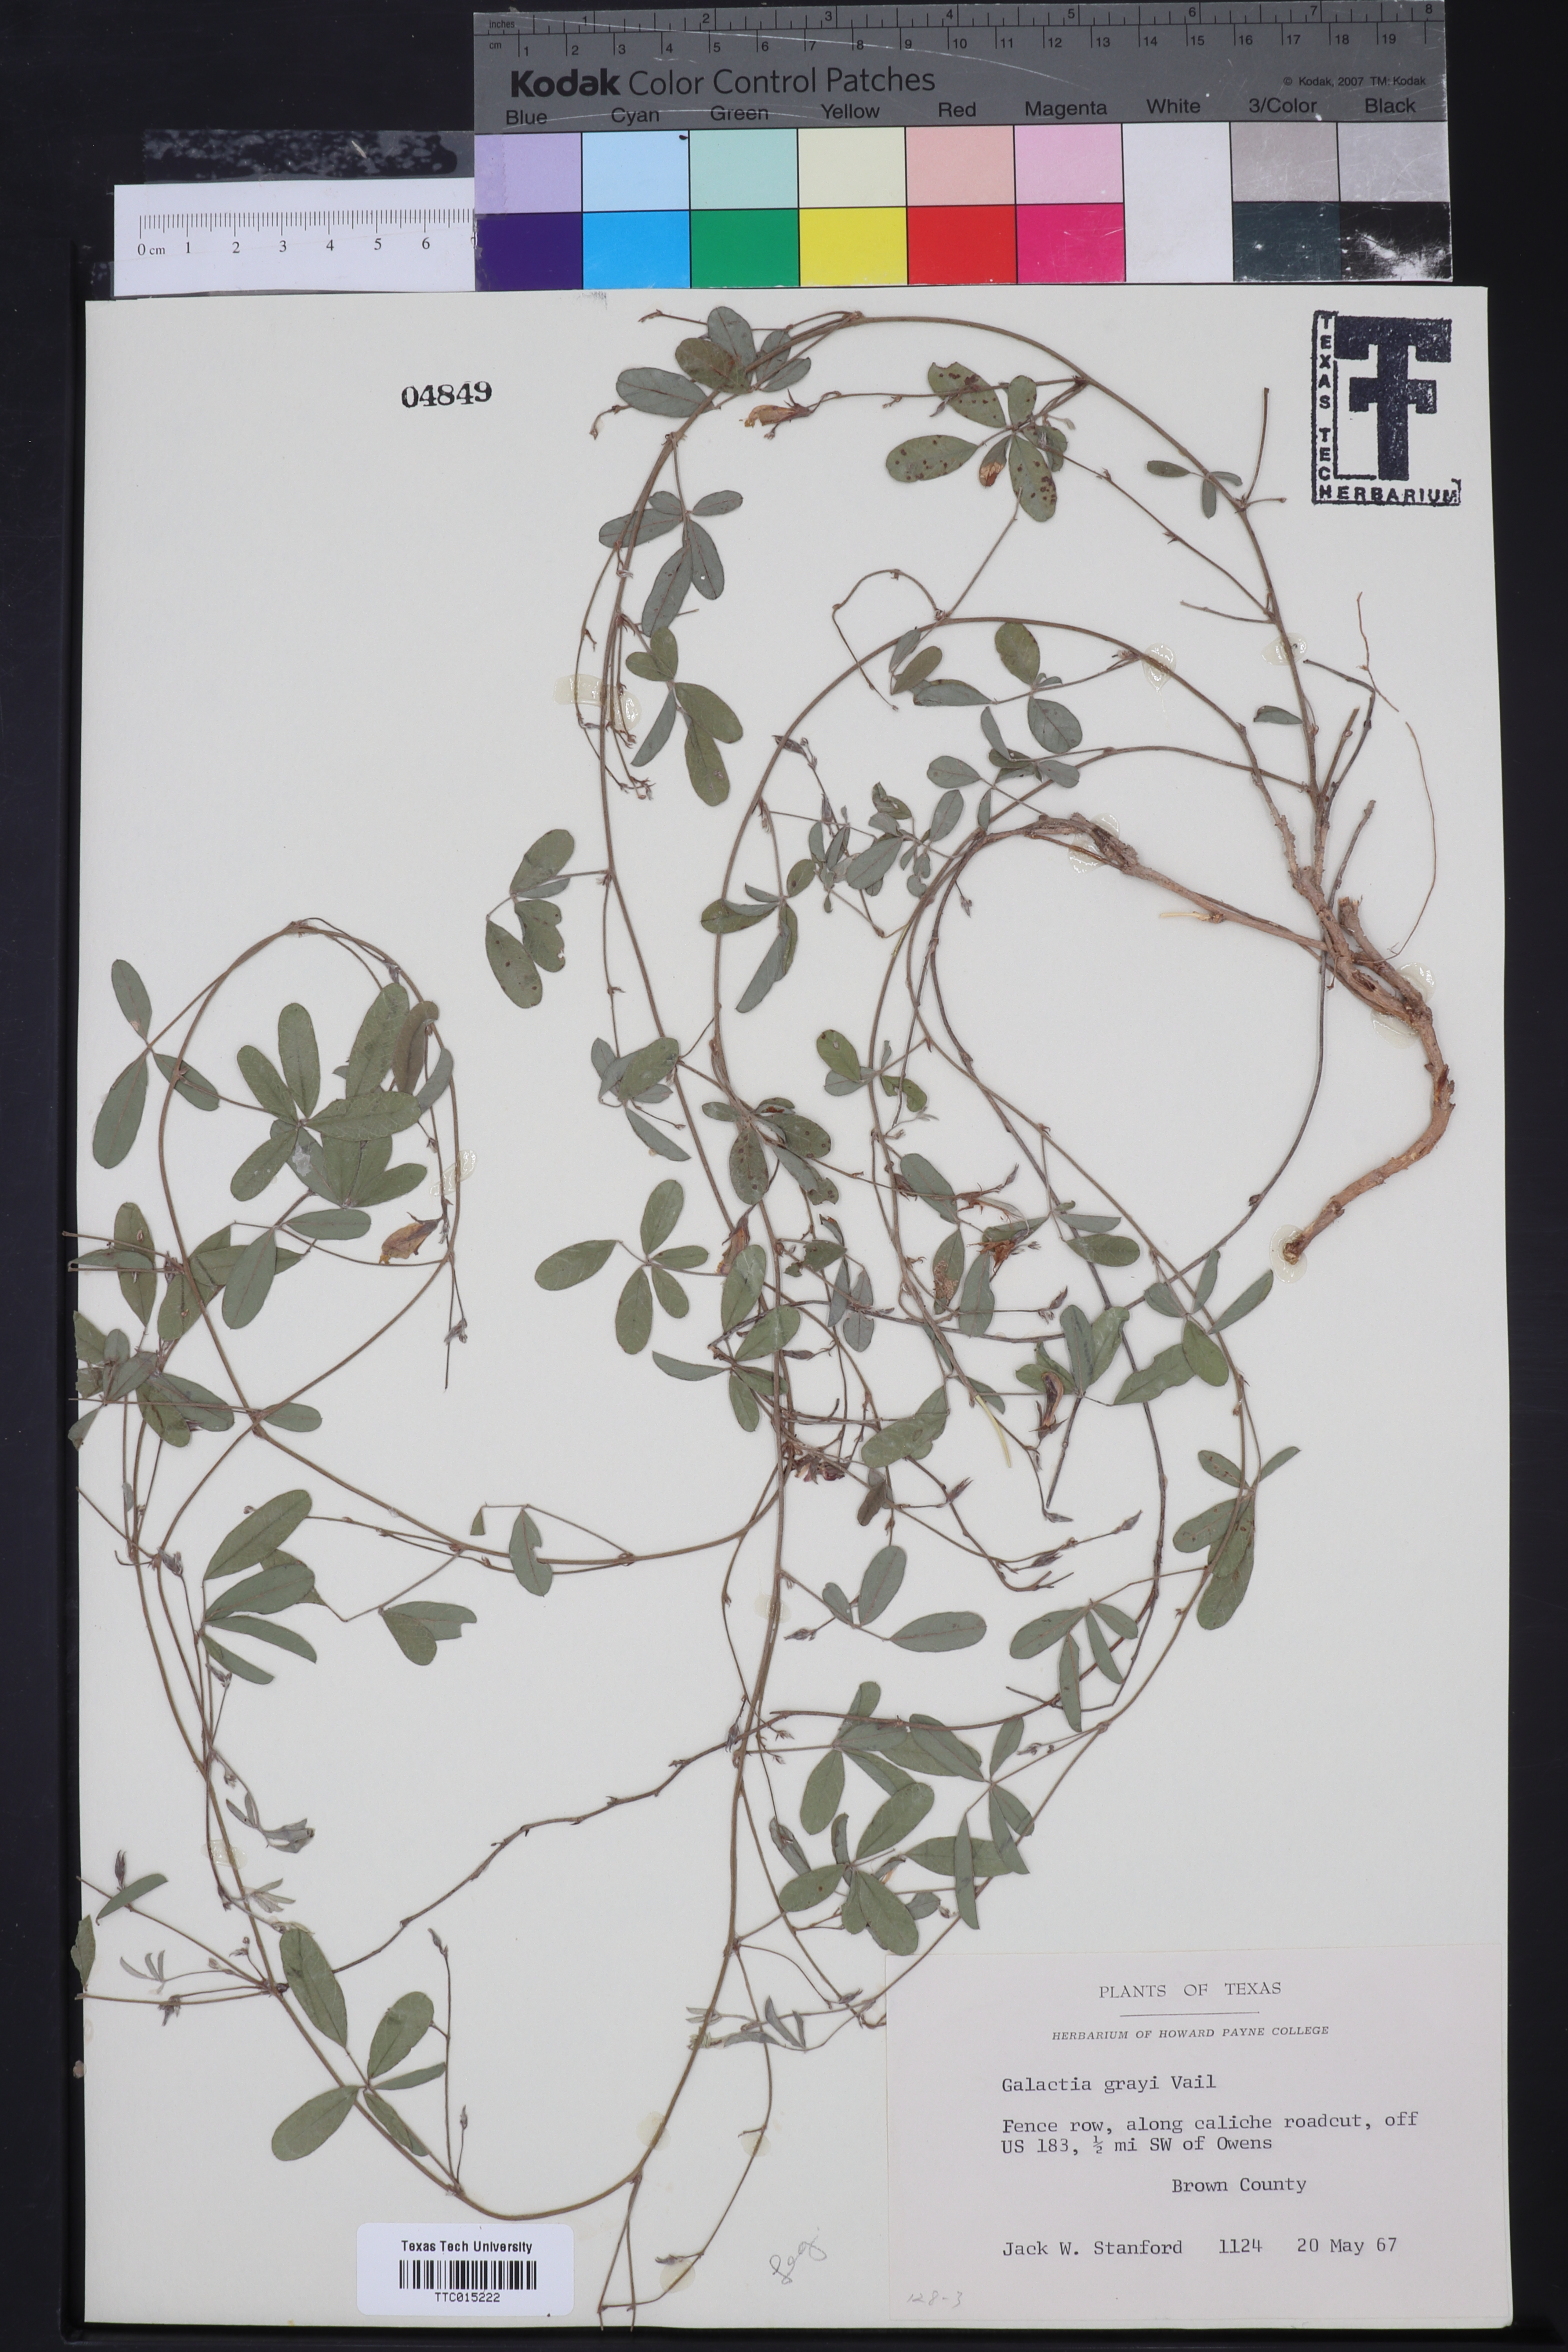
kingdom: Plantae
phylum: Tracheophyta
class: Magnoliopsida
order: Fabales
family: Fabaceae
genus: Galactia
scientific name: Galactia heterophylla
